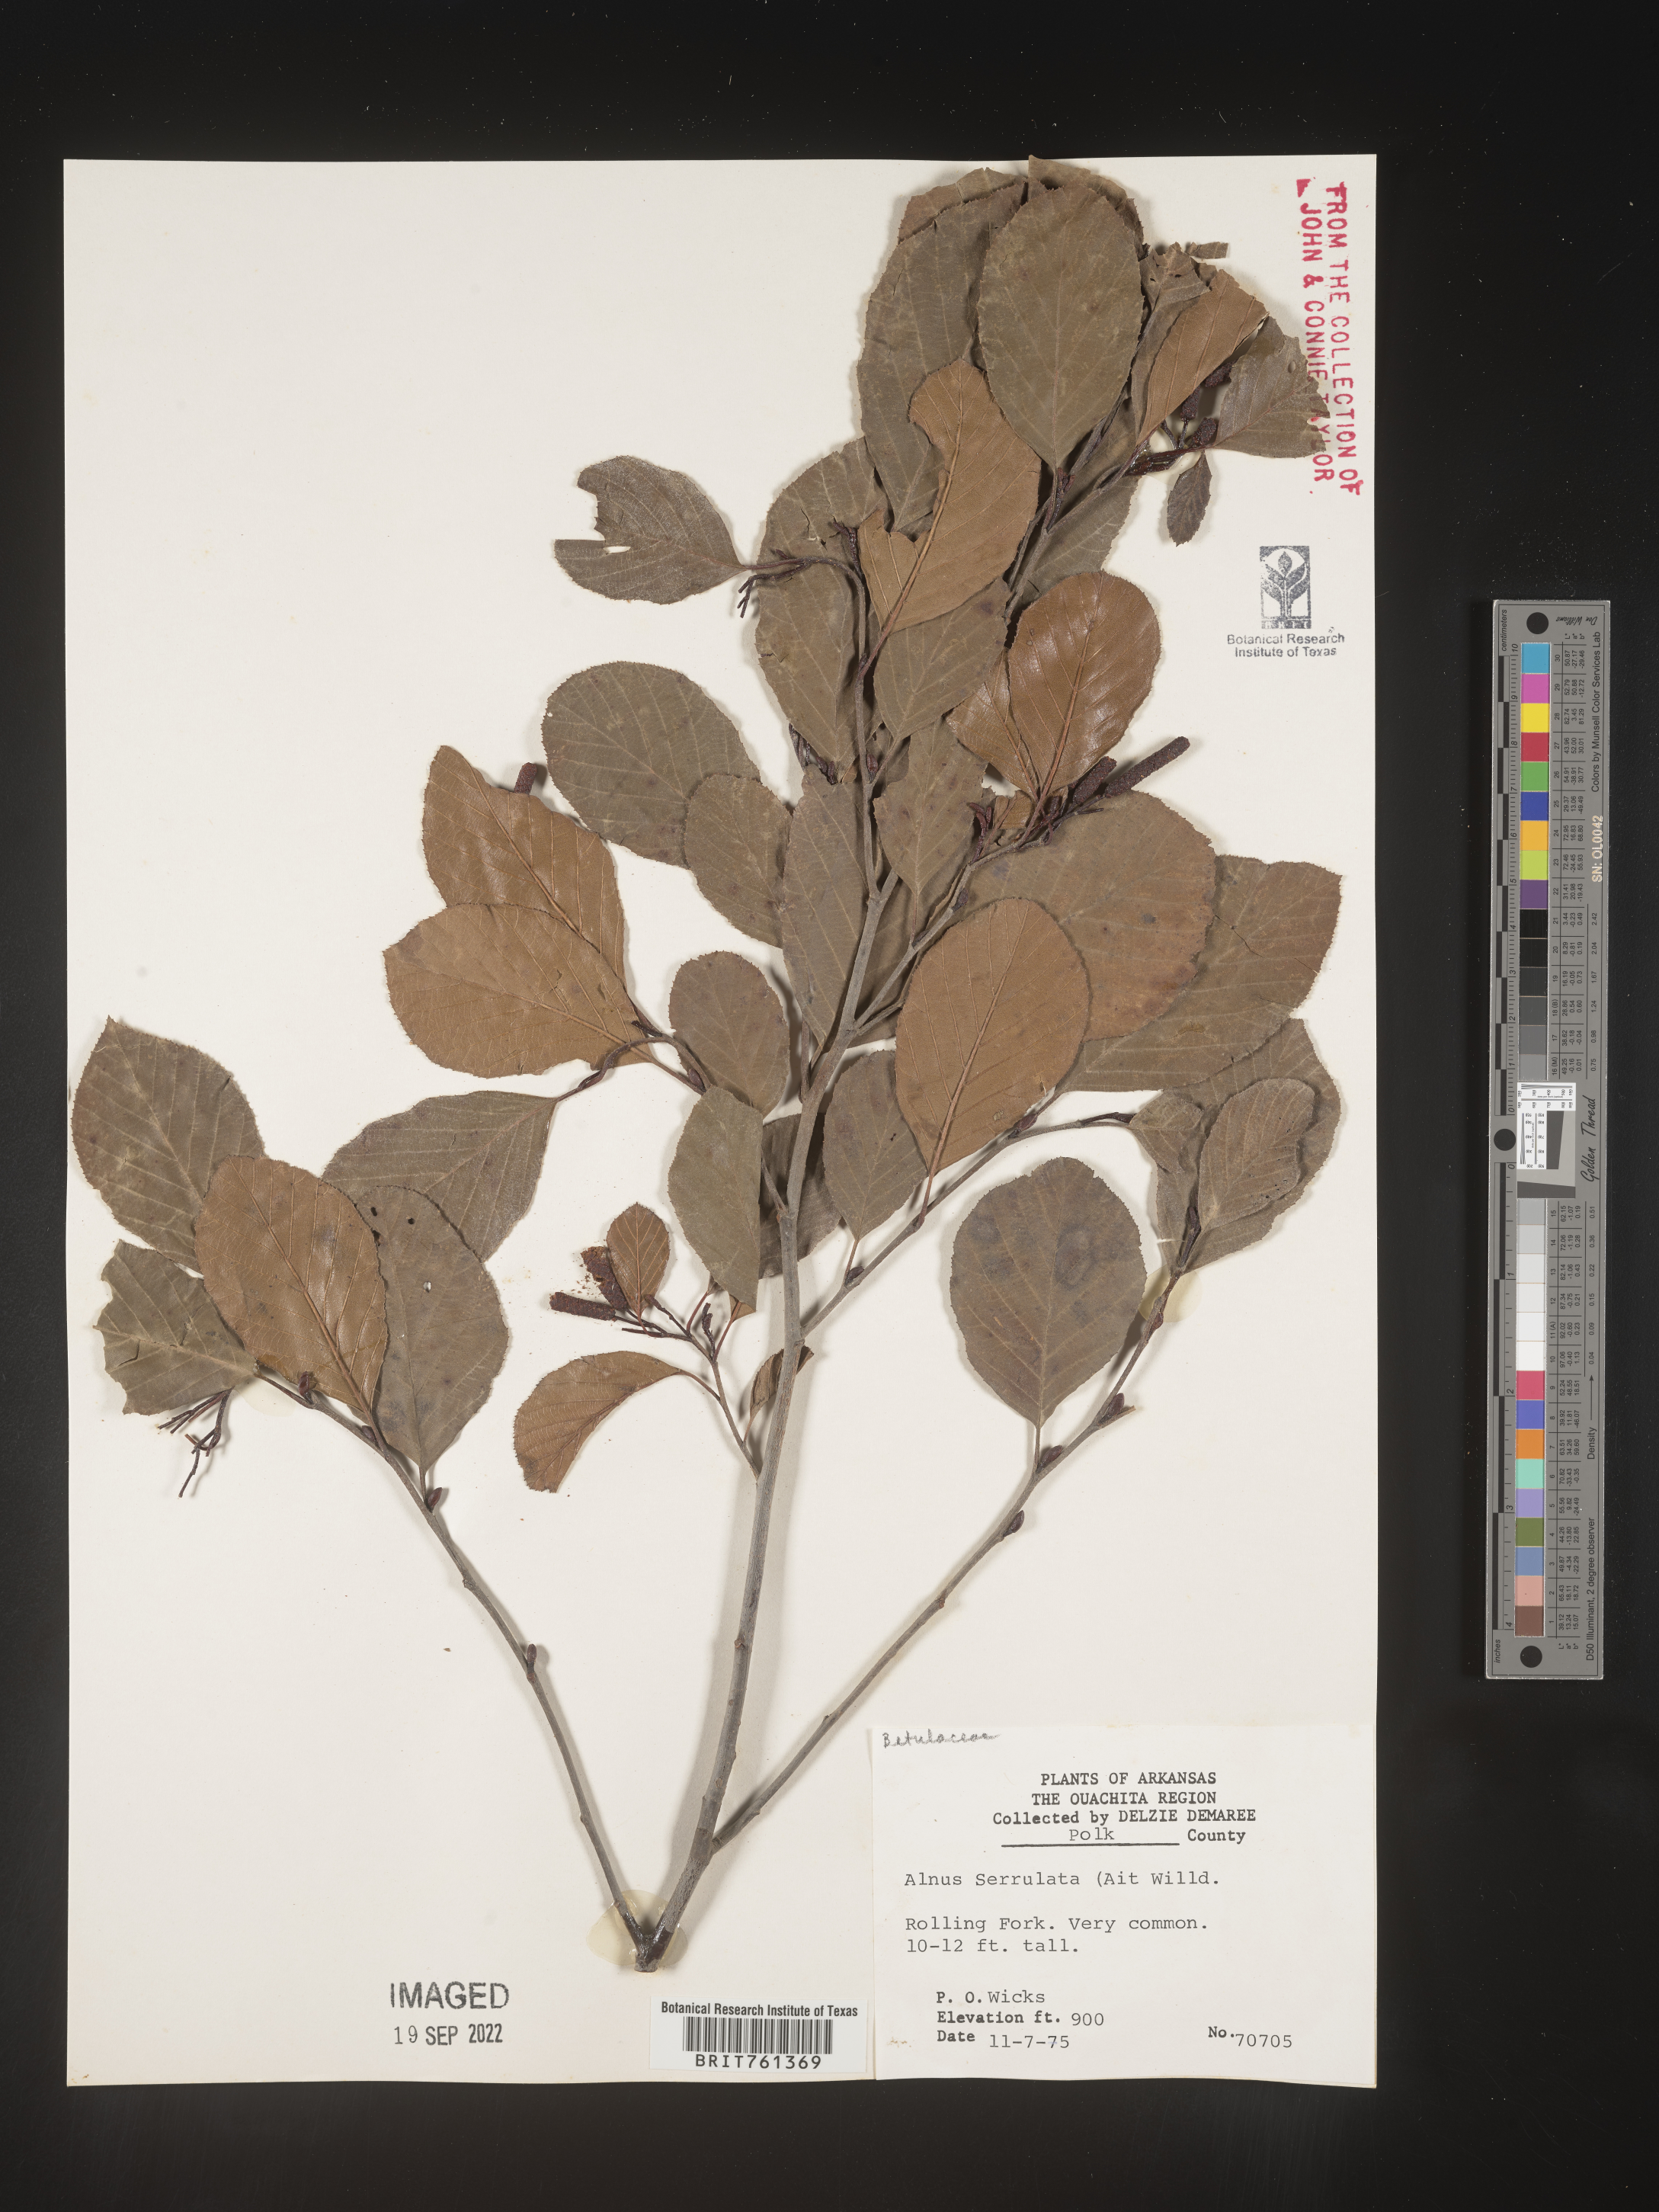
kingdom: Plantae
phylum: Tracheophyta
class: Magnoliopsida
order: Fagales
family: Betulaceae
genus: Alnus
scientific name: Alnus serrulata
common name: Hazel alder
